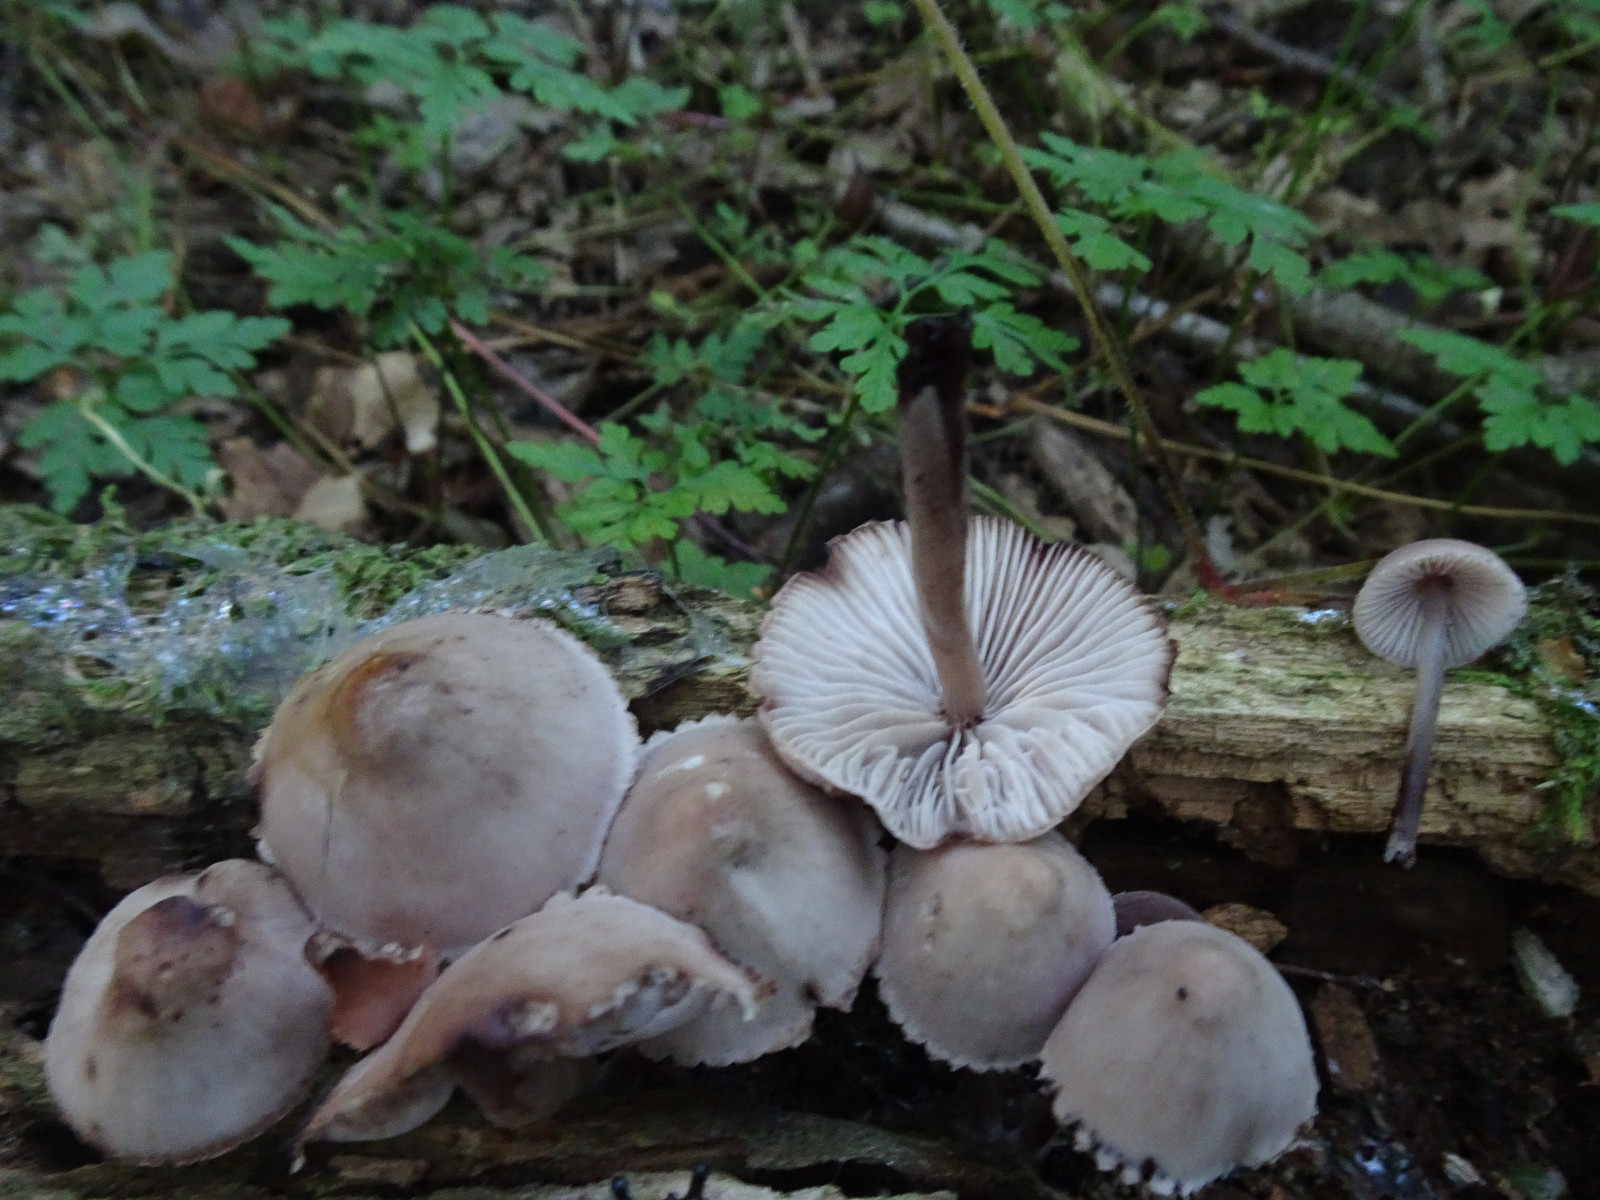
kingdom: Fungi
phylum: Basidiomycota
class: Agaricomycetes
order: Agaricales
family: Mycenaceae
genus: Mycena
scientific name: Mycena haematopus
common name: blødende huesvamp
